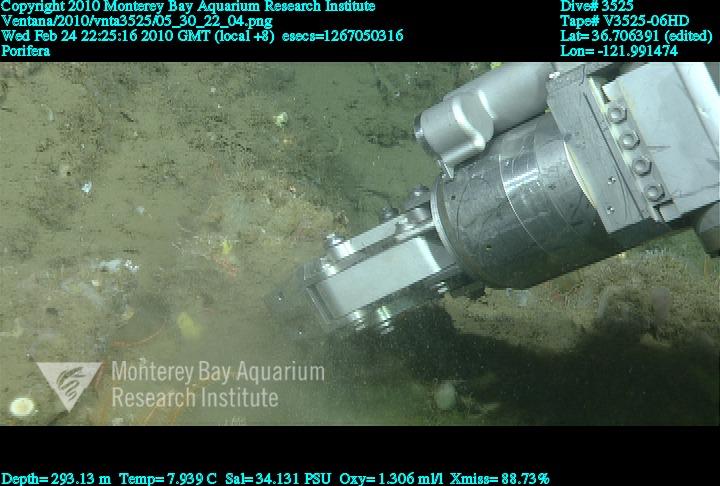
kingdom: Animalia
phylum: Porifera
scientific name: Porifera
